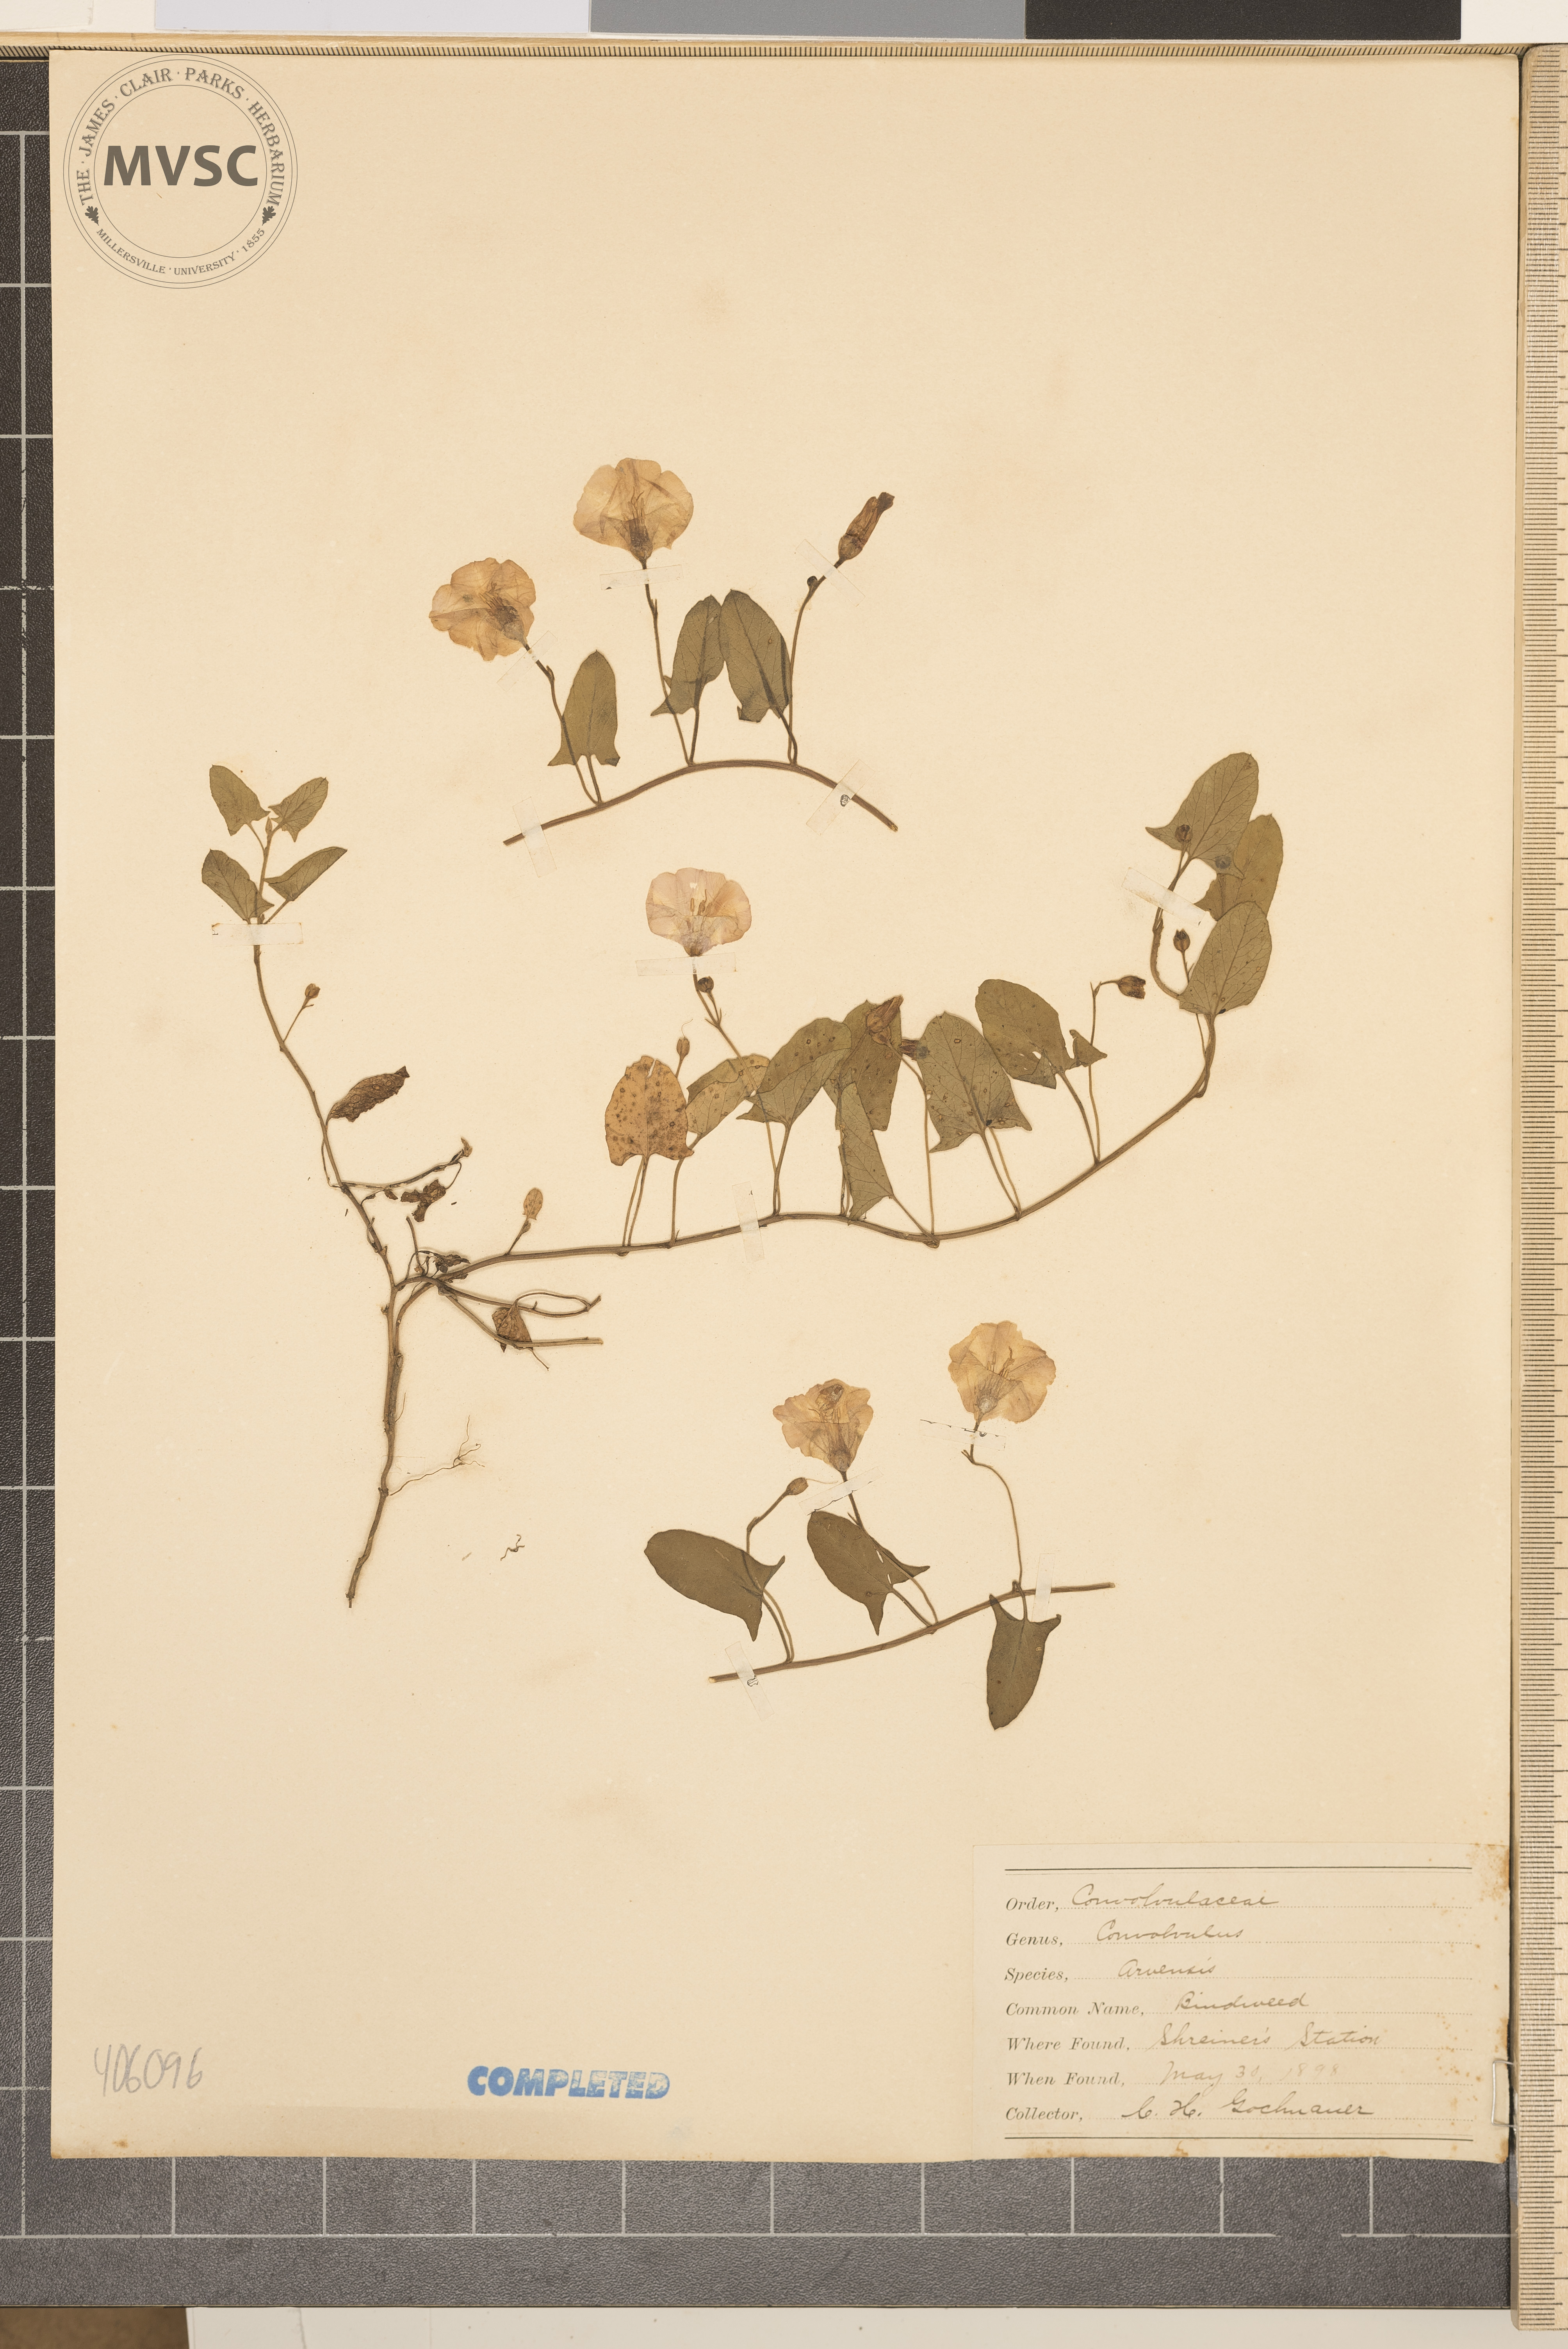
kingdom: Plantae
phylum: Tracheophyta
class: Magnoliopsida
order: Solanales
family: Convolvulaceae
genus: Convolvulus
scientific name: Convolvulus arvensis
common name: Field bindweed
